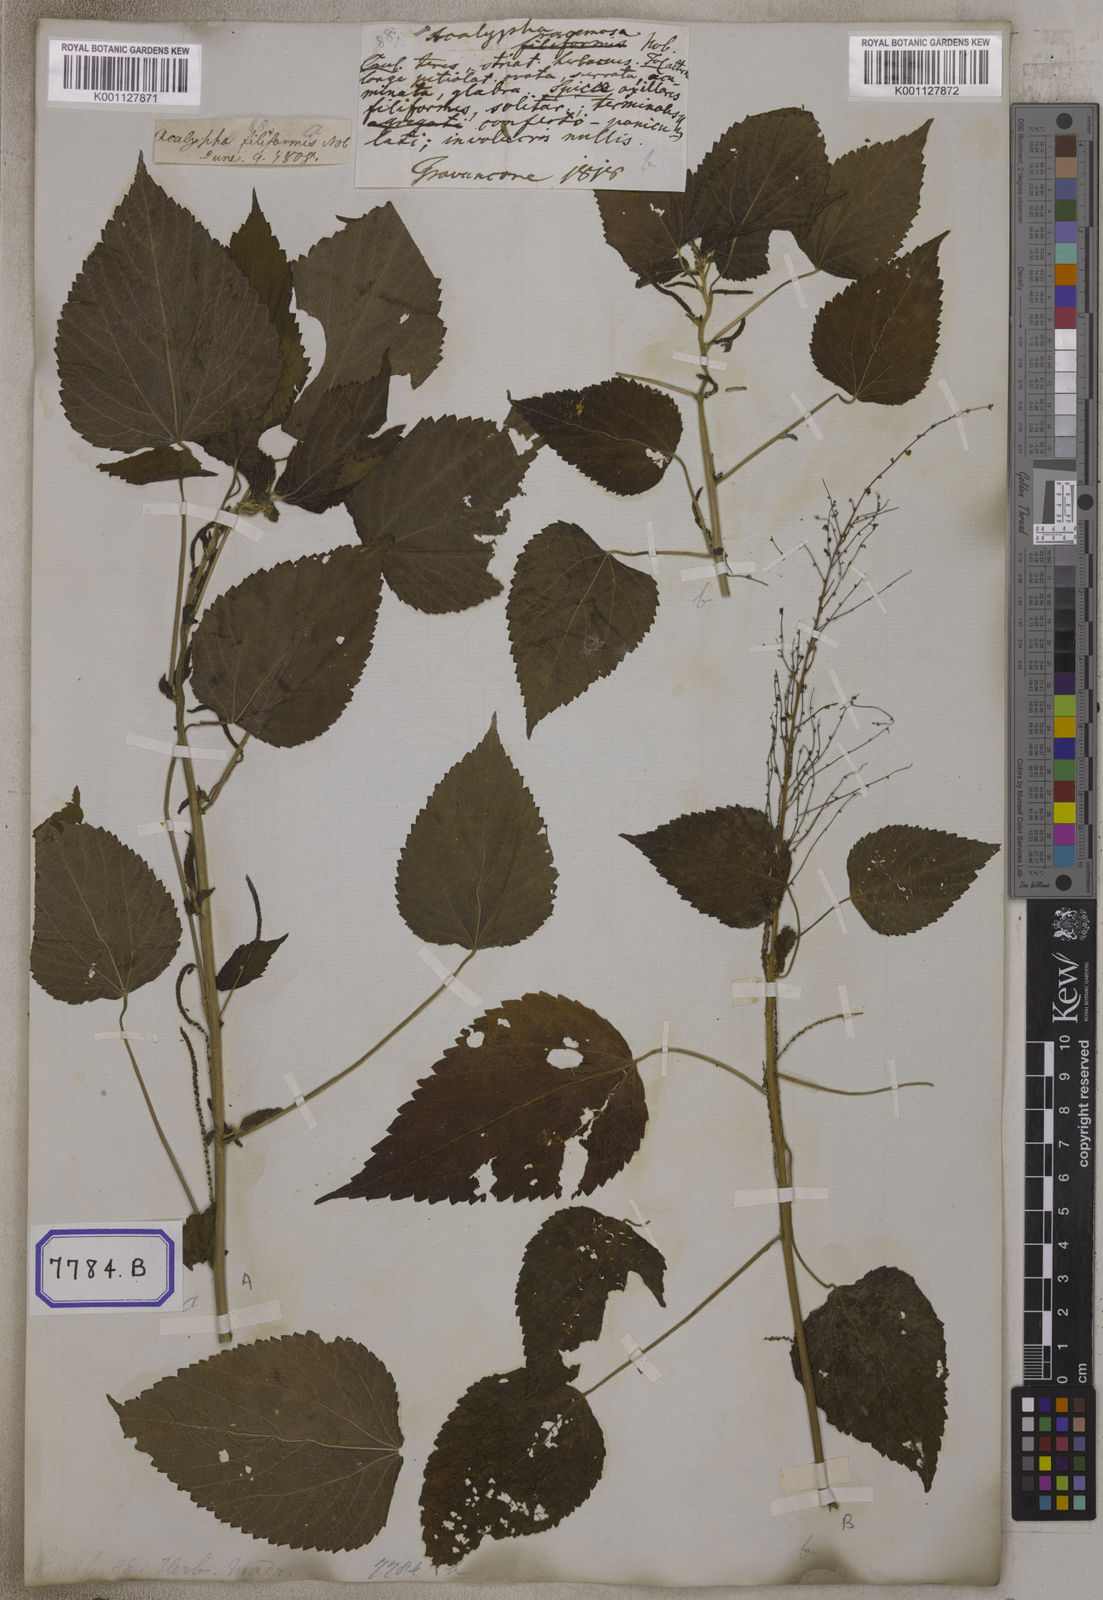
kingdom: Plantae
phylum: Tracheophyta
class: Magnoliopsida
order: Malpighiales
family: Euphorbiaceae
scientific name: Euphorbiaceae
